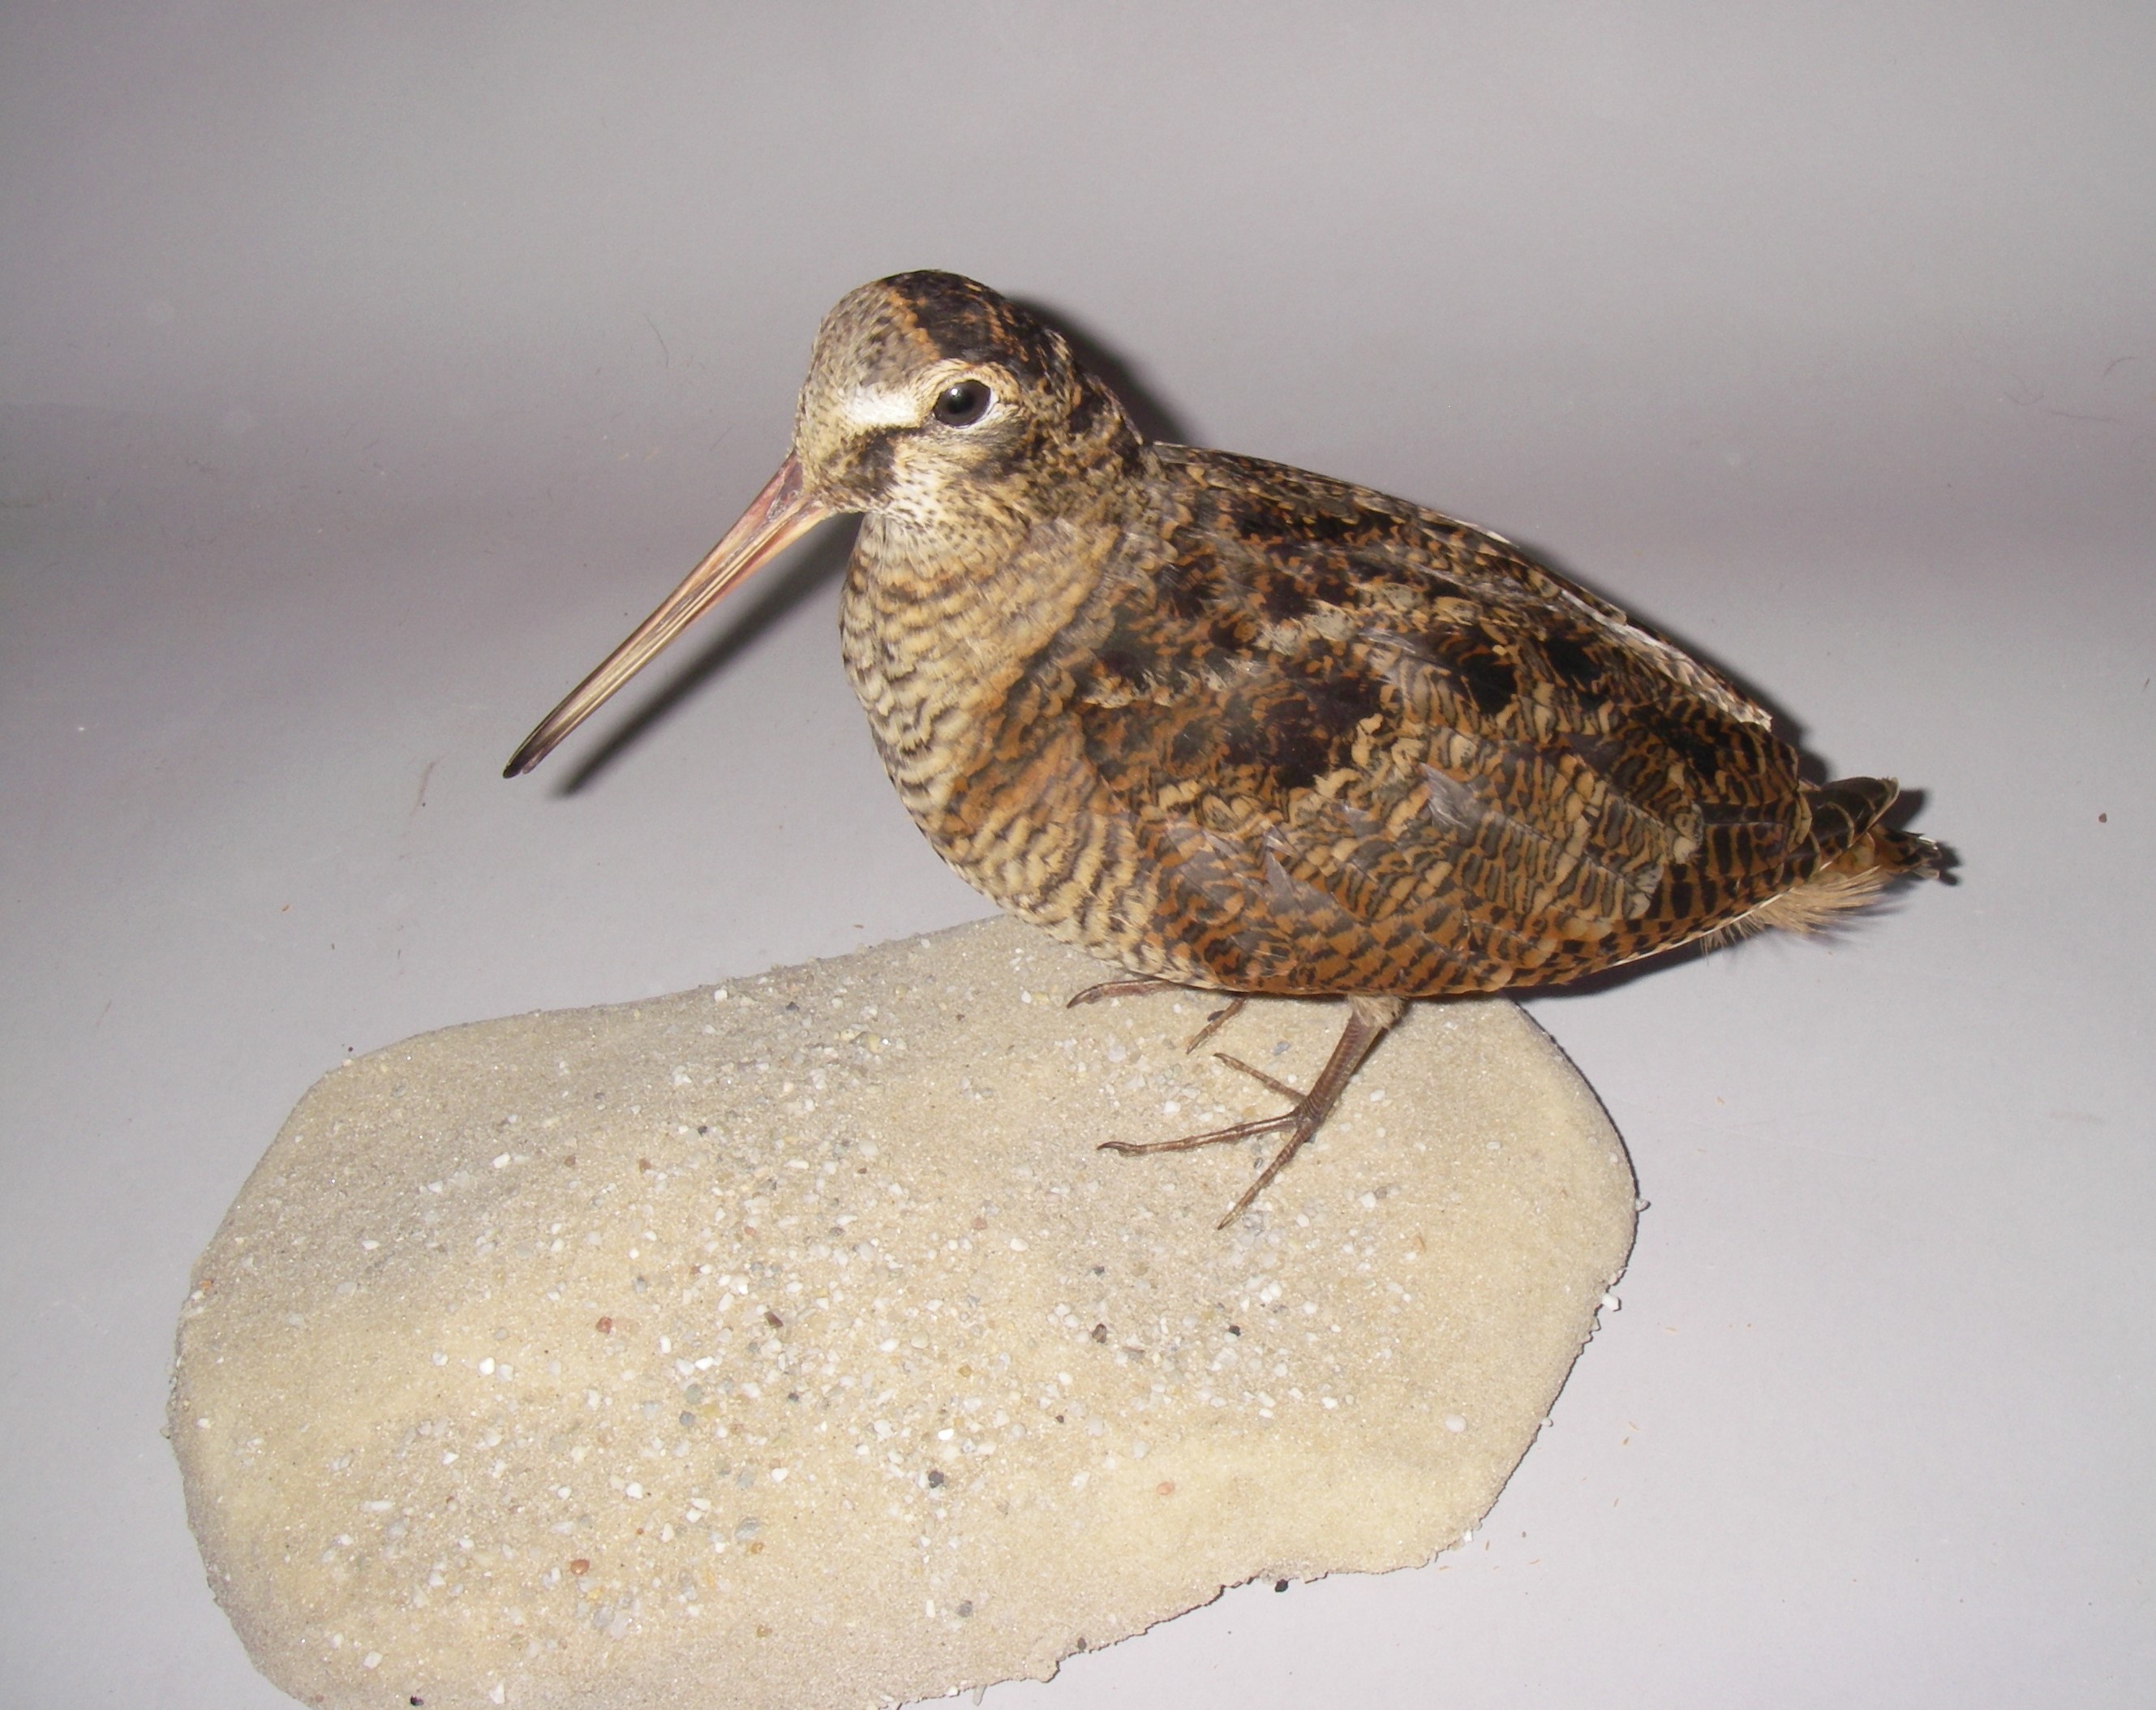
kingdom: Animalia
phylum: Chordata
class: Aves
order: Charadriiformes
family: Scolopacidae
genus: Scolopax
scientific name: Scolopax rusticola
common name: Eurasian woodcock
